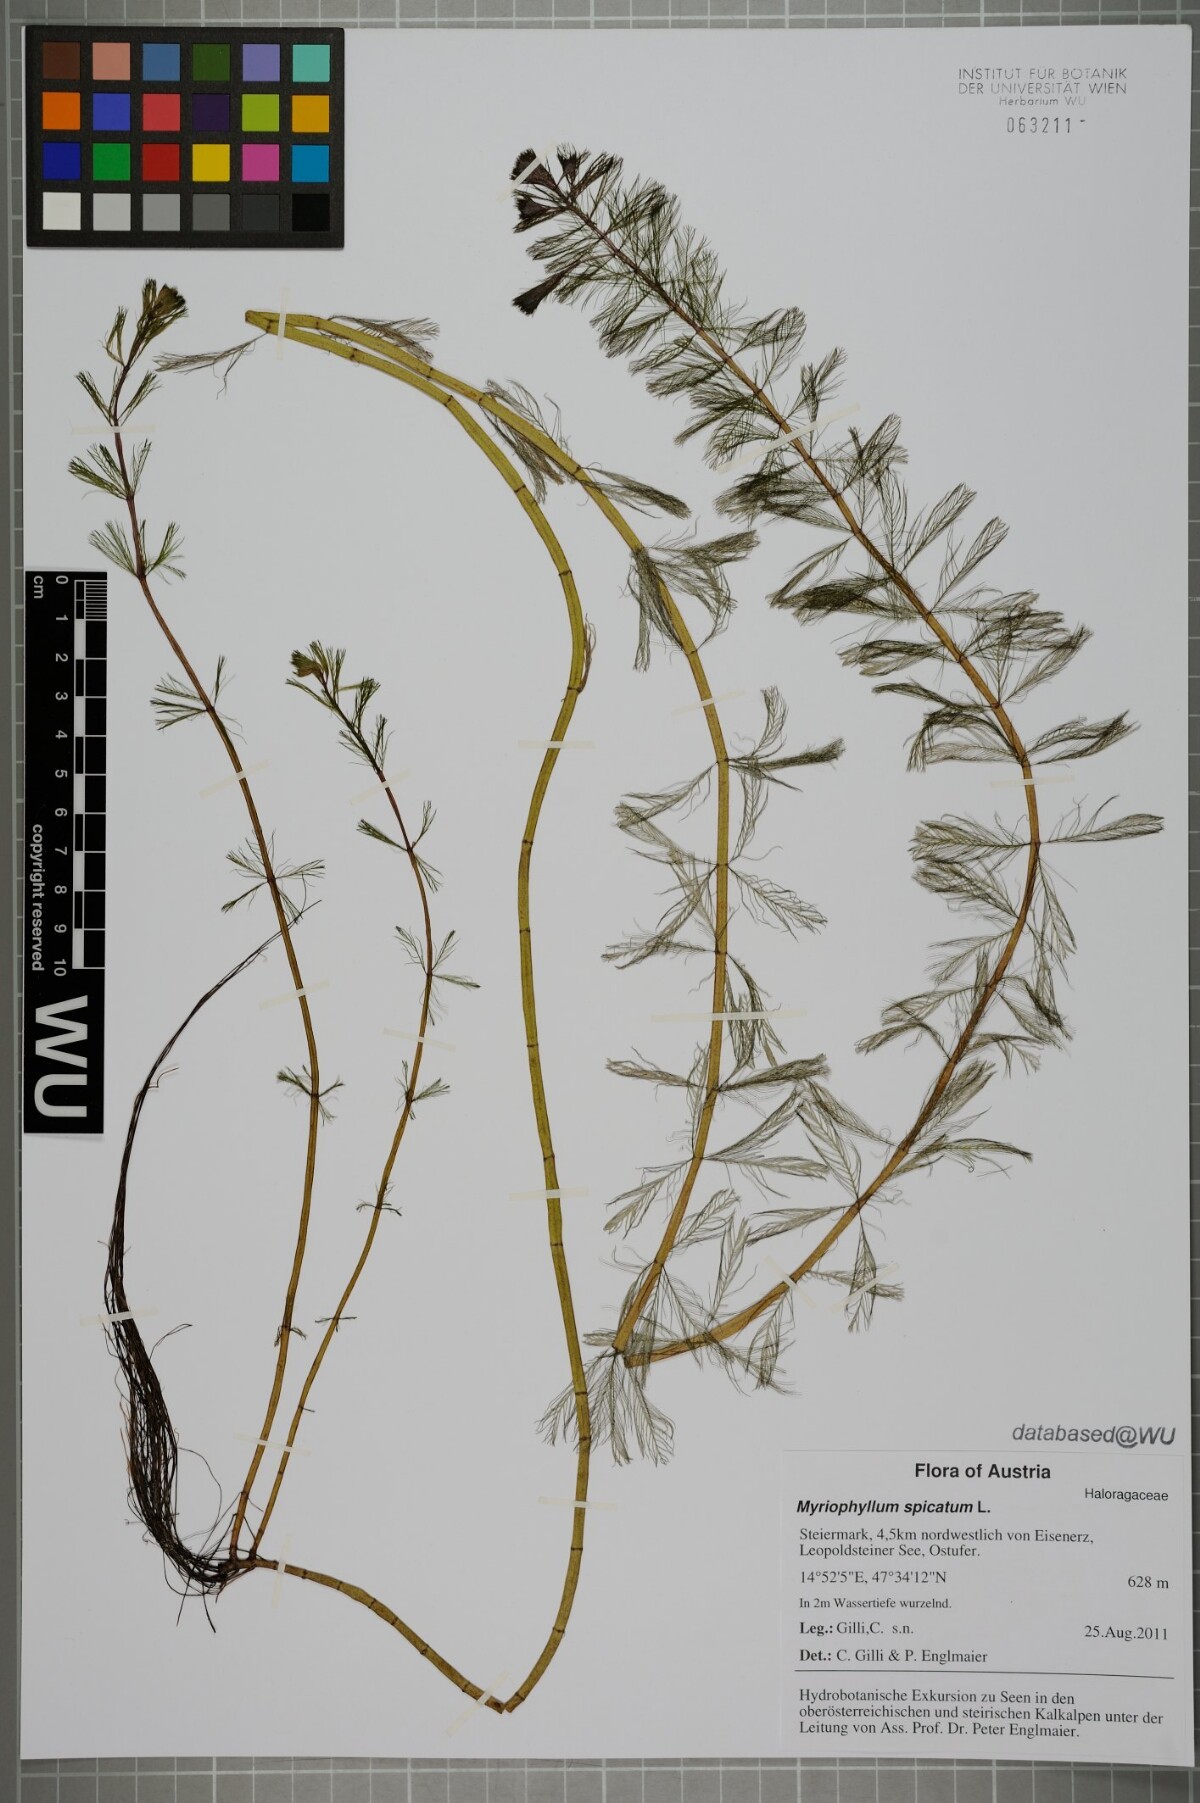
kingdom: Plantae
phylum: Tracheophyta
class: Magnoliopsida
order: Saxifragales
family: Haloragaceae
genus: Myriophyllum
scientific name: Myriophyllum spicatum
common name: Spiked water-milfoil
